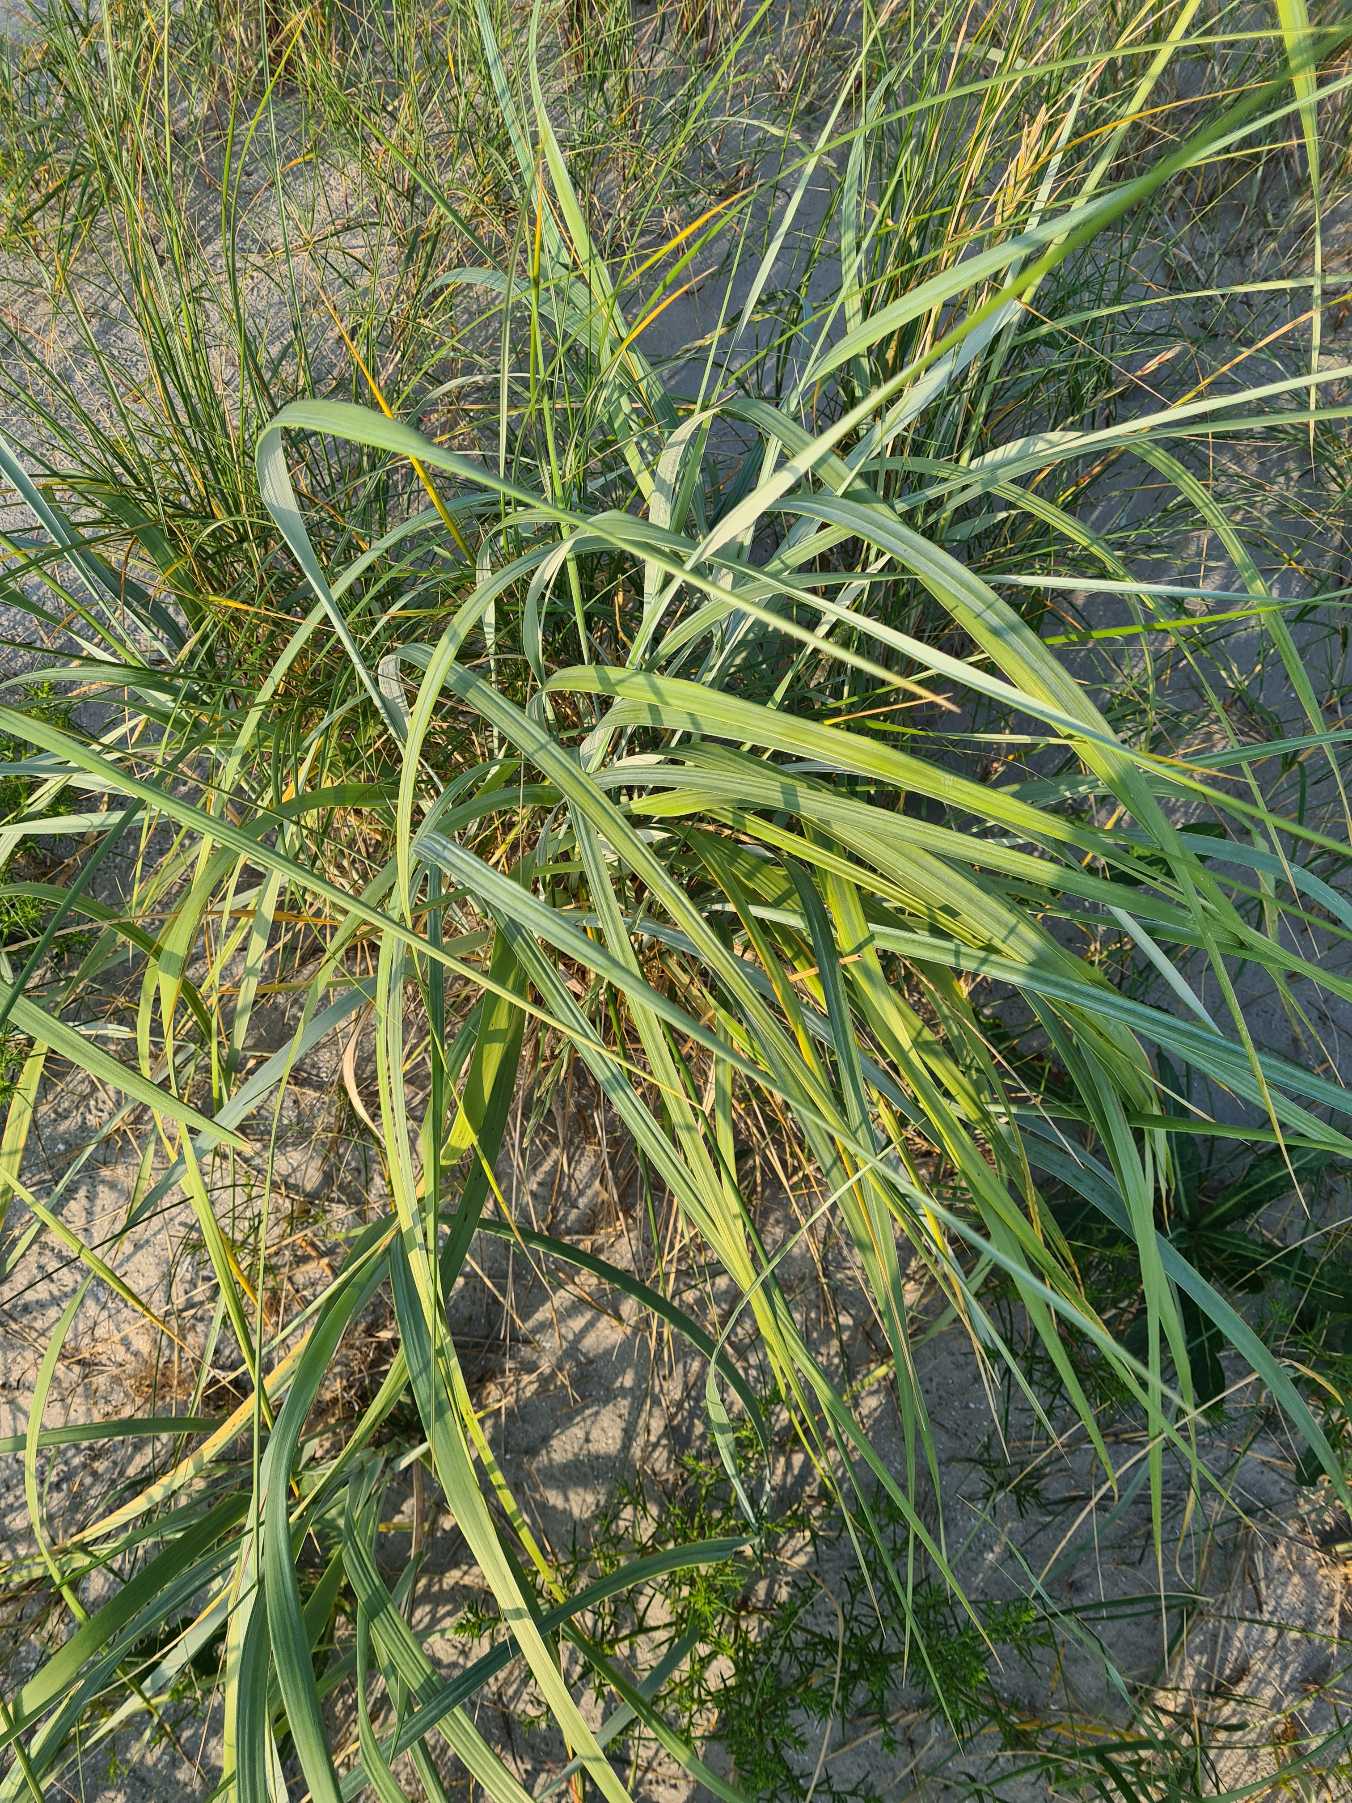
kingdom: Plantae
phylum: Tracheophyta
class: Liliopsida
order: Poales
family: Poaceae
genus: Leymus
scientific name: Leymus arenarius
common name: Marehalm
